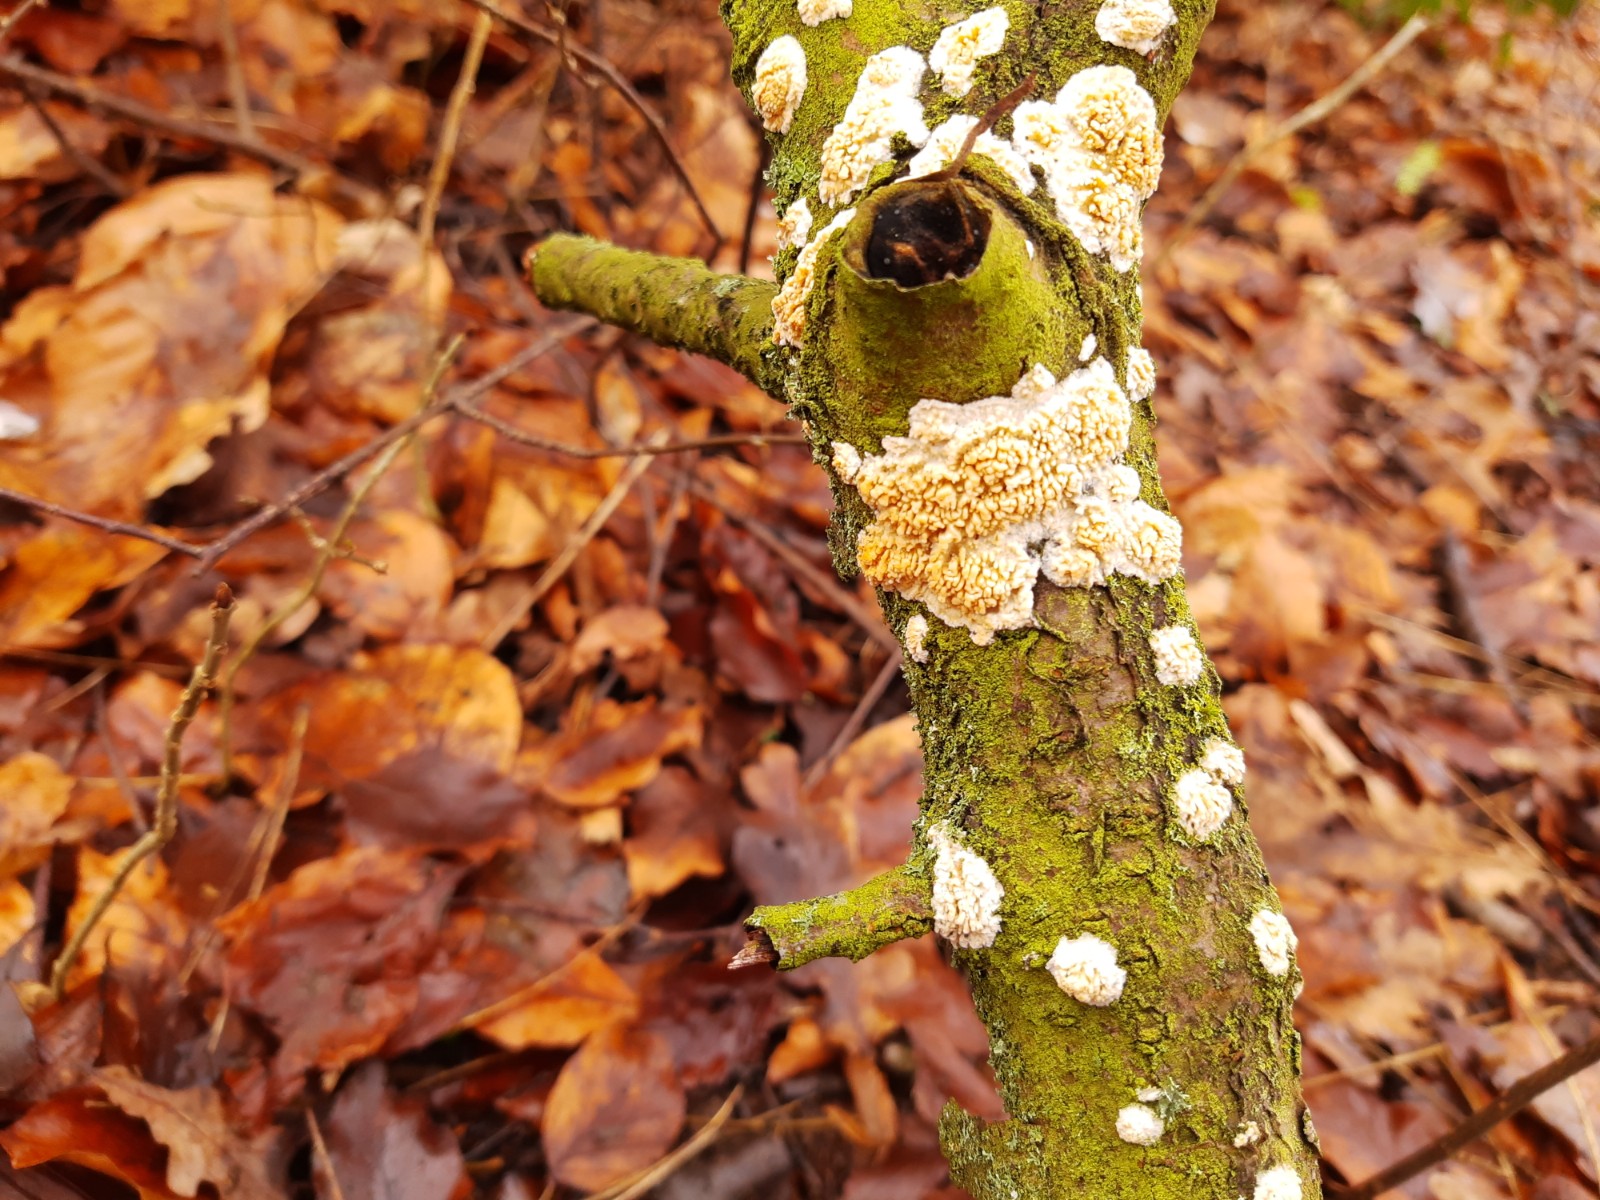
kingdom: Fungi
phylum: Basidiomycota
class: Agaricomycetes
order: Hymenochaetales
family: Schizoporaceae
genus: Xylodon
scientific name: Xylodon radula
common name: grovtandet kalkskind
